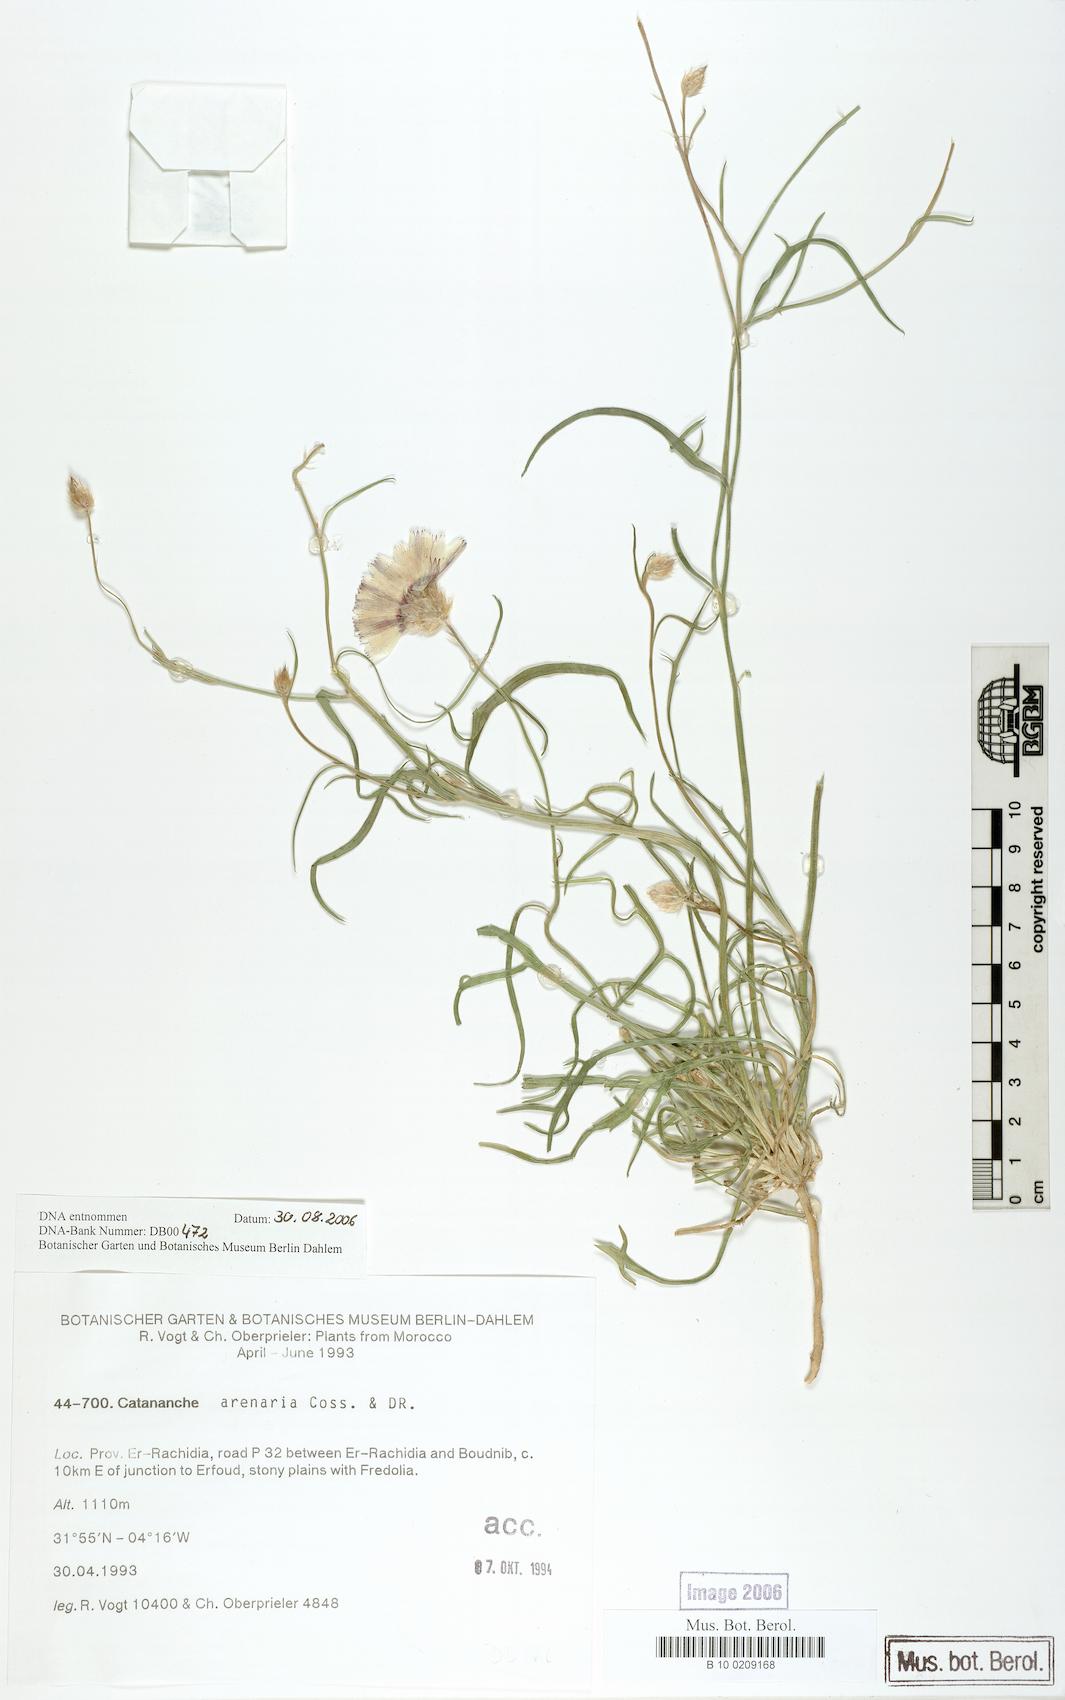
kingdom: Plantae
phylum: Tracheophyta
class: Magnoliopsida
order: Asterales
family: Asteraceae
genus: Catananche
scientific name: Catananche arenaria
